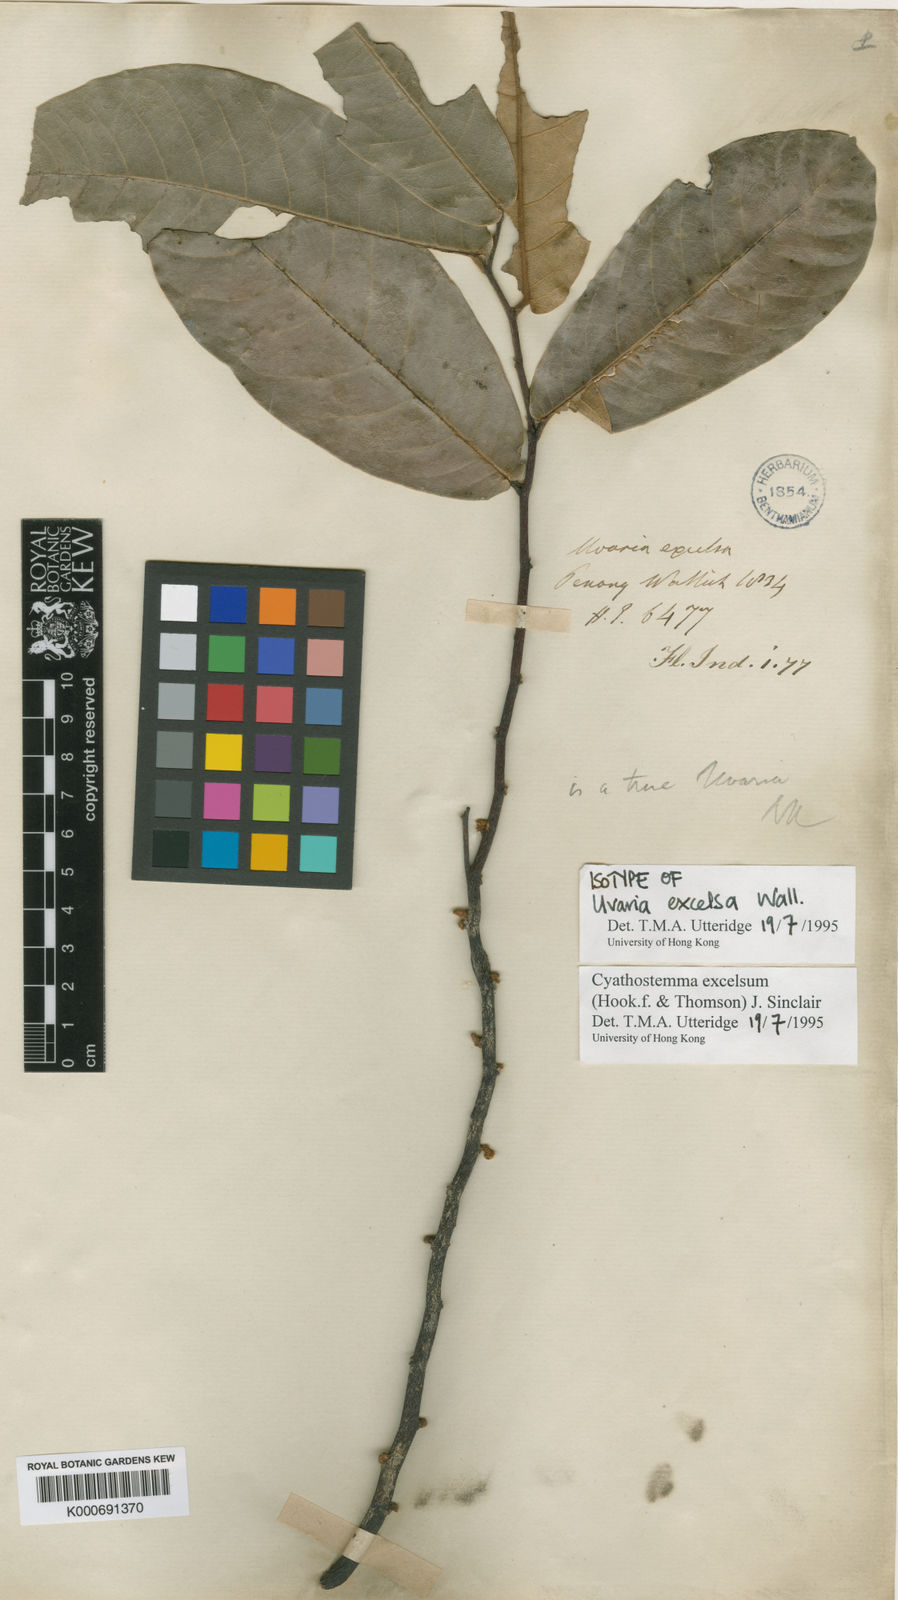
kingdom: Plantae
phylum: Tracheophyta
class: Magnoliopsida
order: Magnoliales
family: Annonaceae
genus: Uvaria
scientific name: Uvaria excelsa
